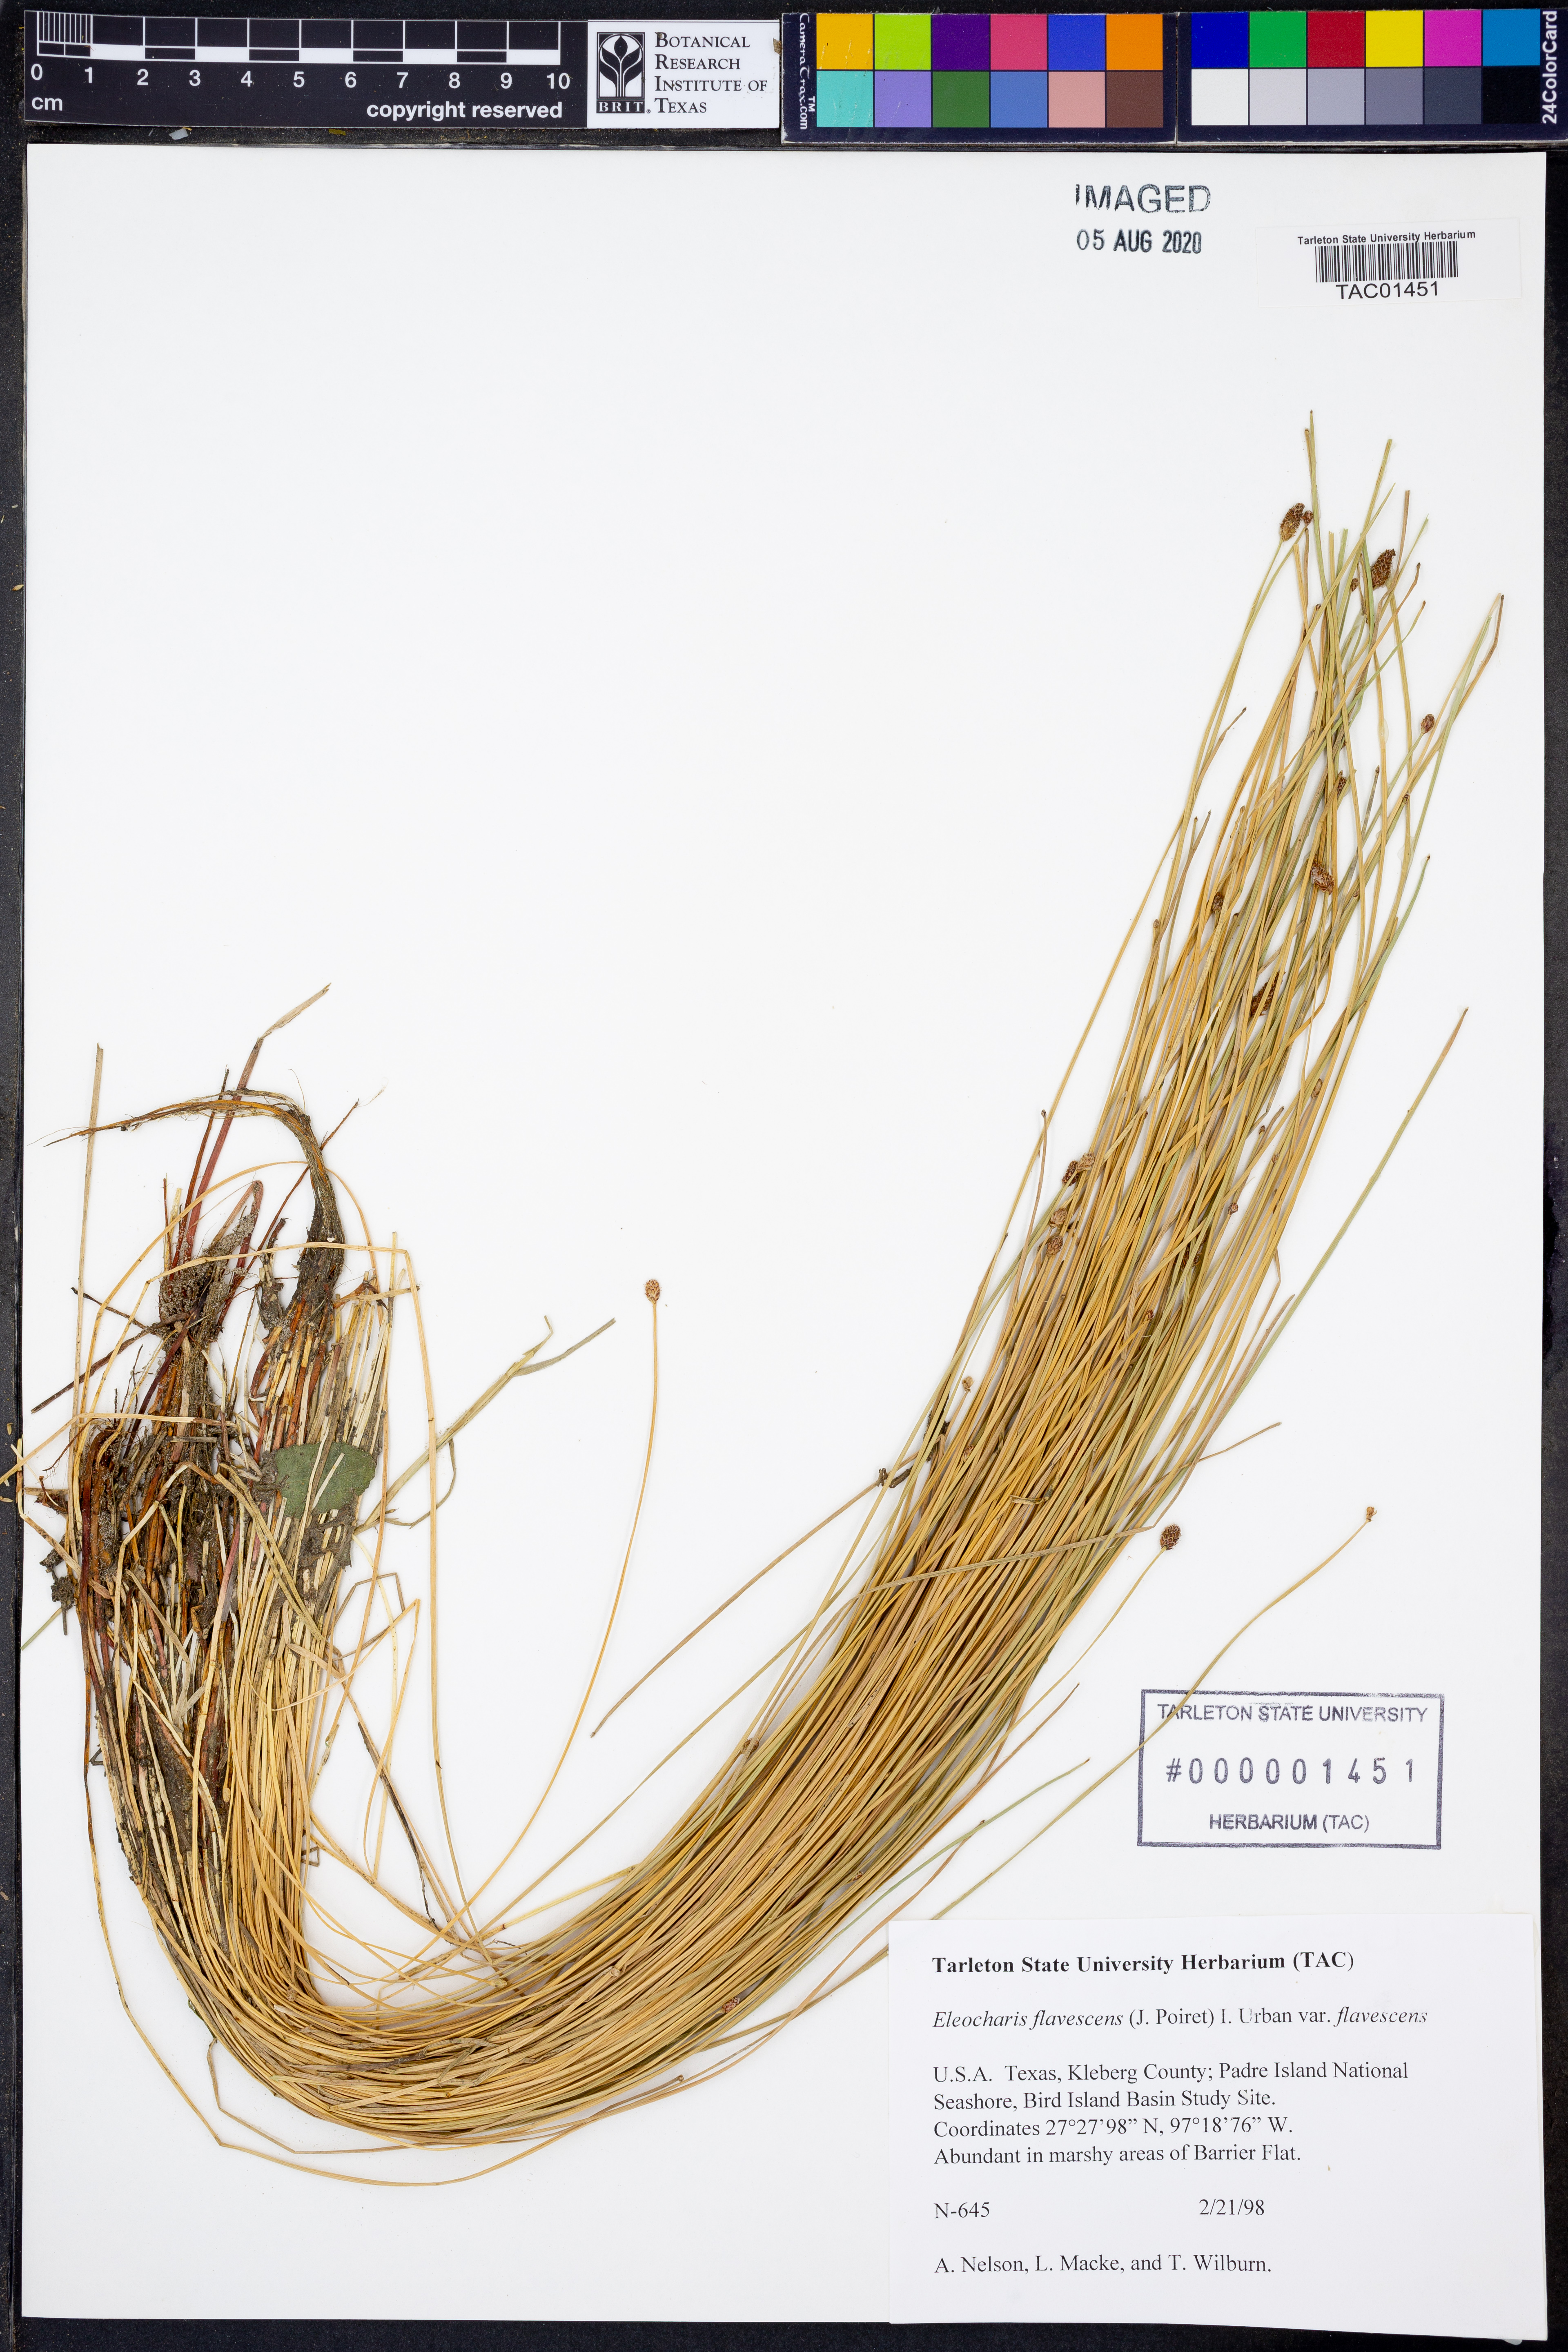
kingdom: Plantae
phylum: Tracheophyta
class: Liliopsida
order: Poales
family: Cyperaceae
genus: Eleocharis
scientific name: Eleocharis flavescens
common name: Yellow spikerush
